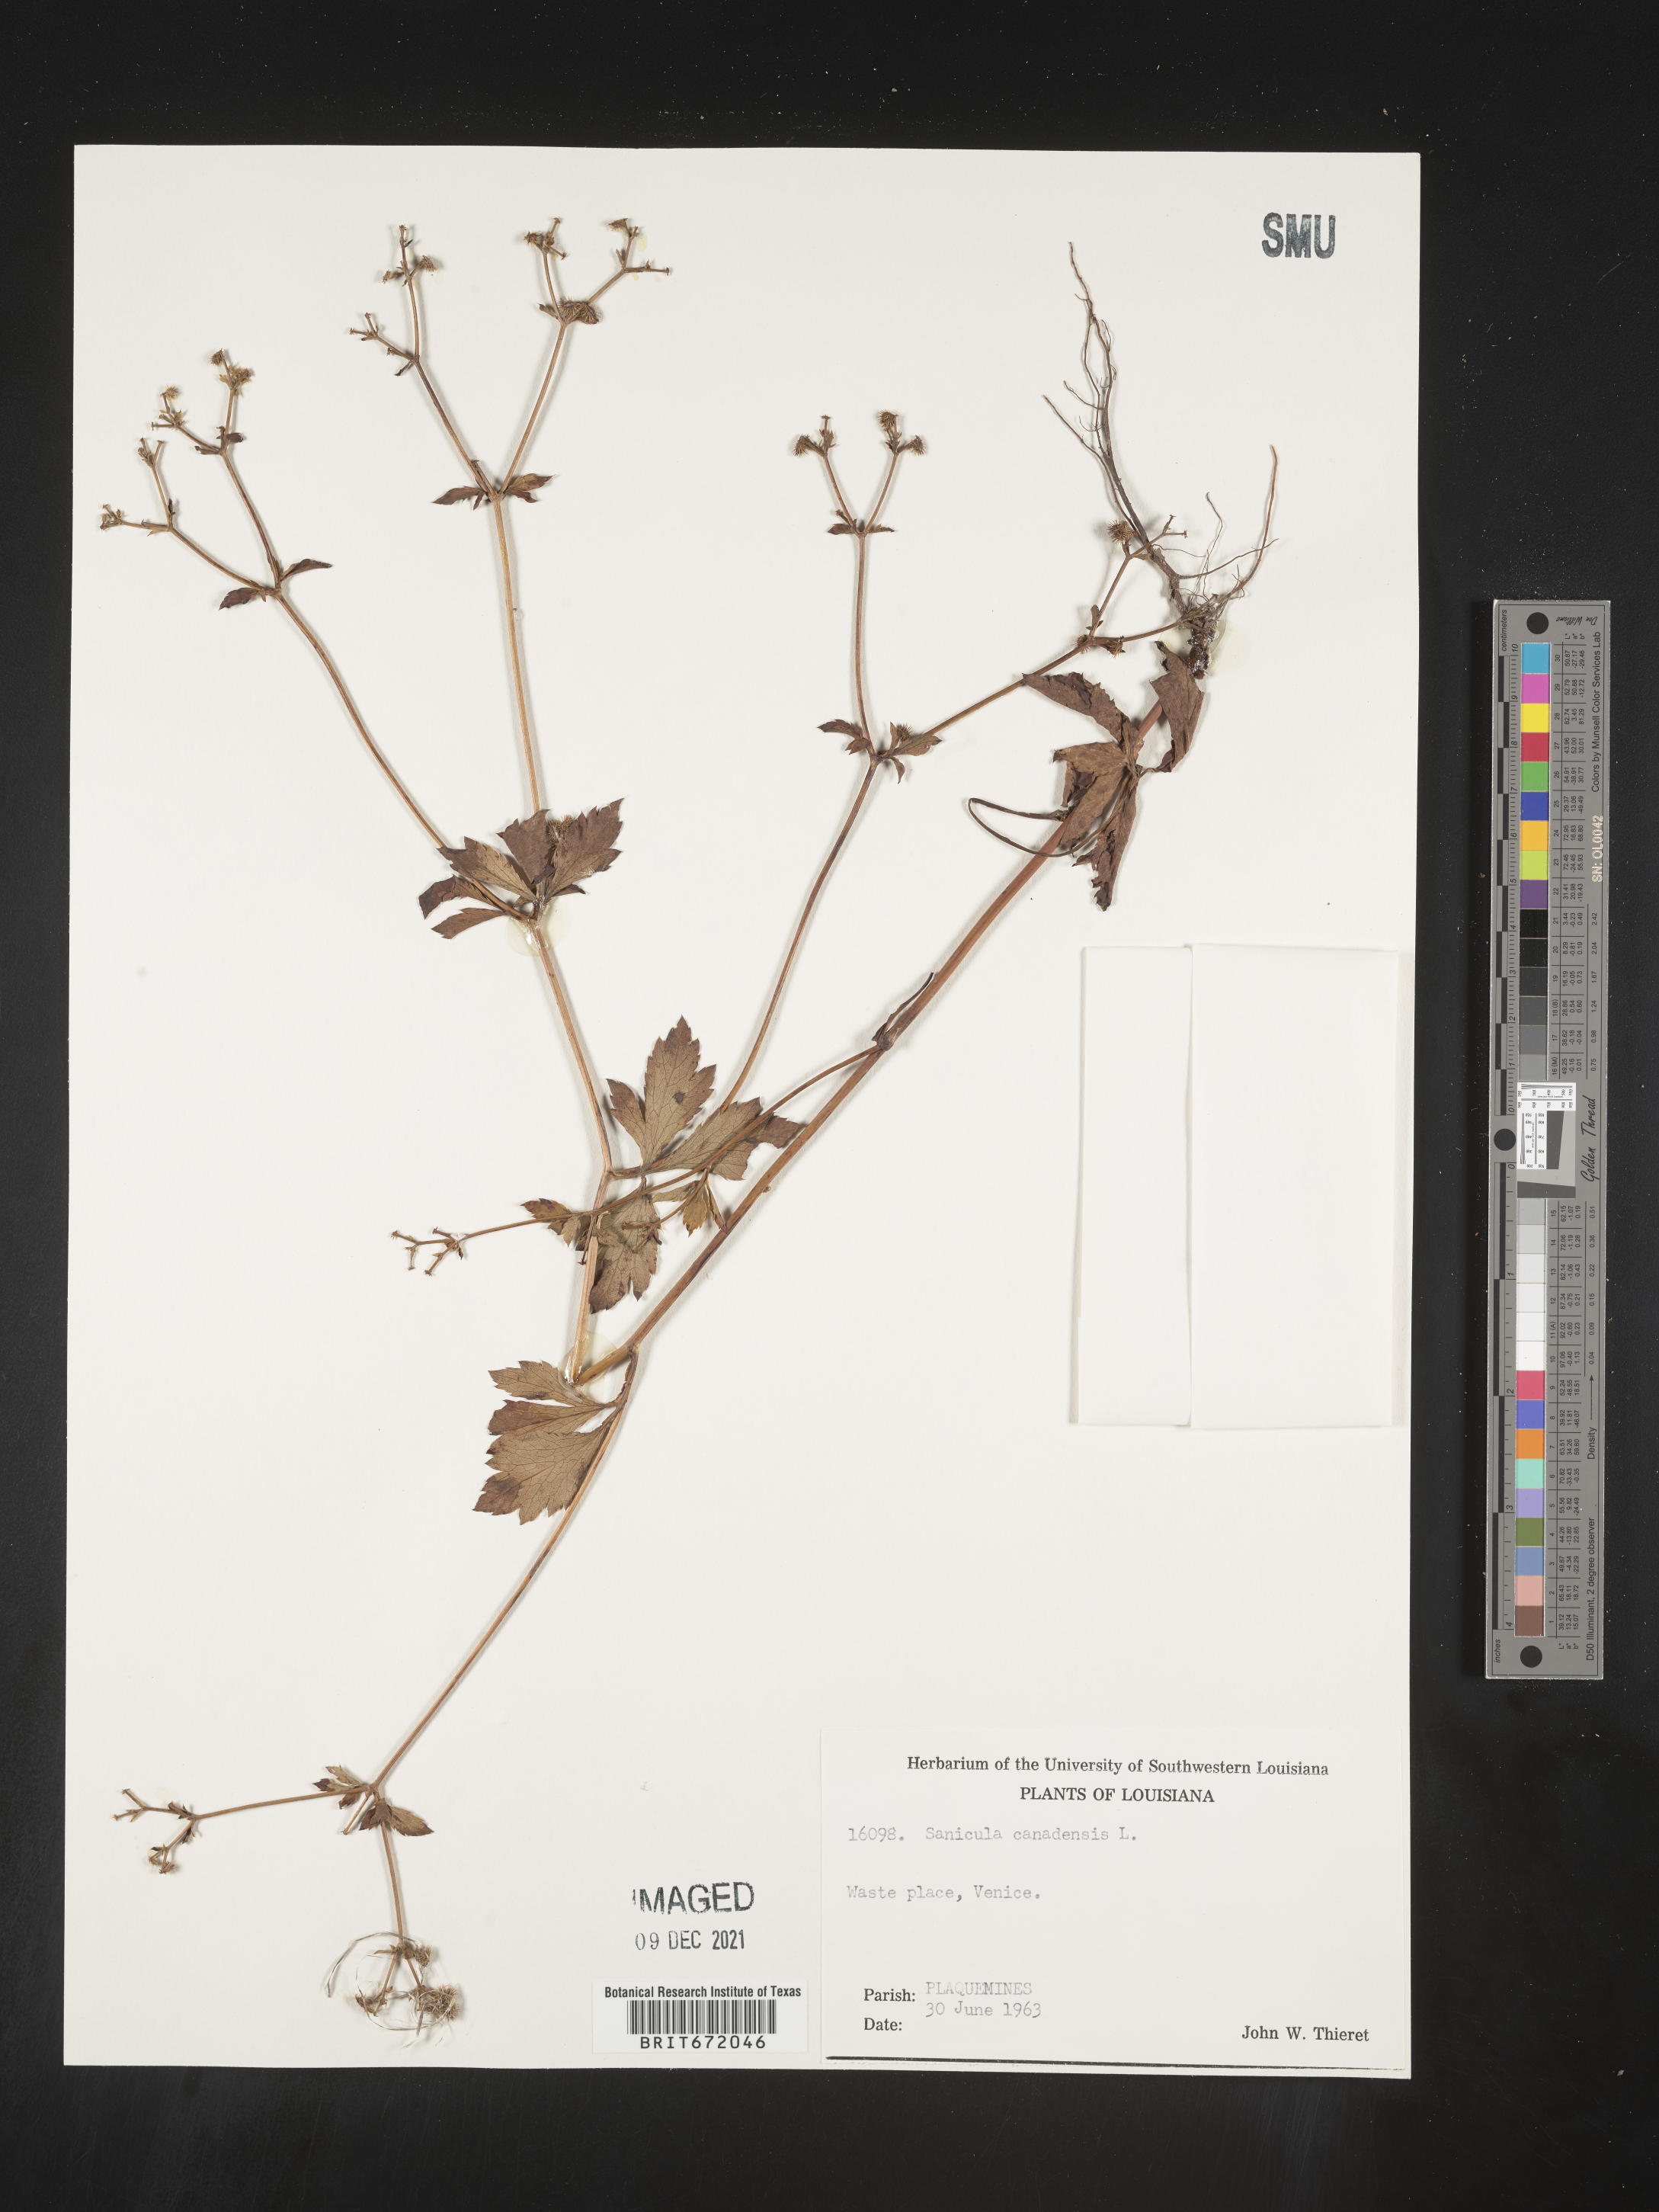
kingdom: Plantae
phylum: Tracheophyta
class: Magnoliopsida
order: Apiales
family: Apiaceae
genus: Sanicula
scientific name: Sanicula canadensis
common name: Canada sanicle
